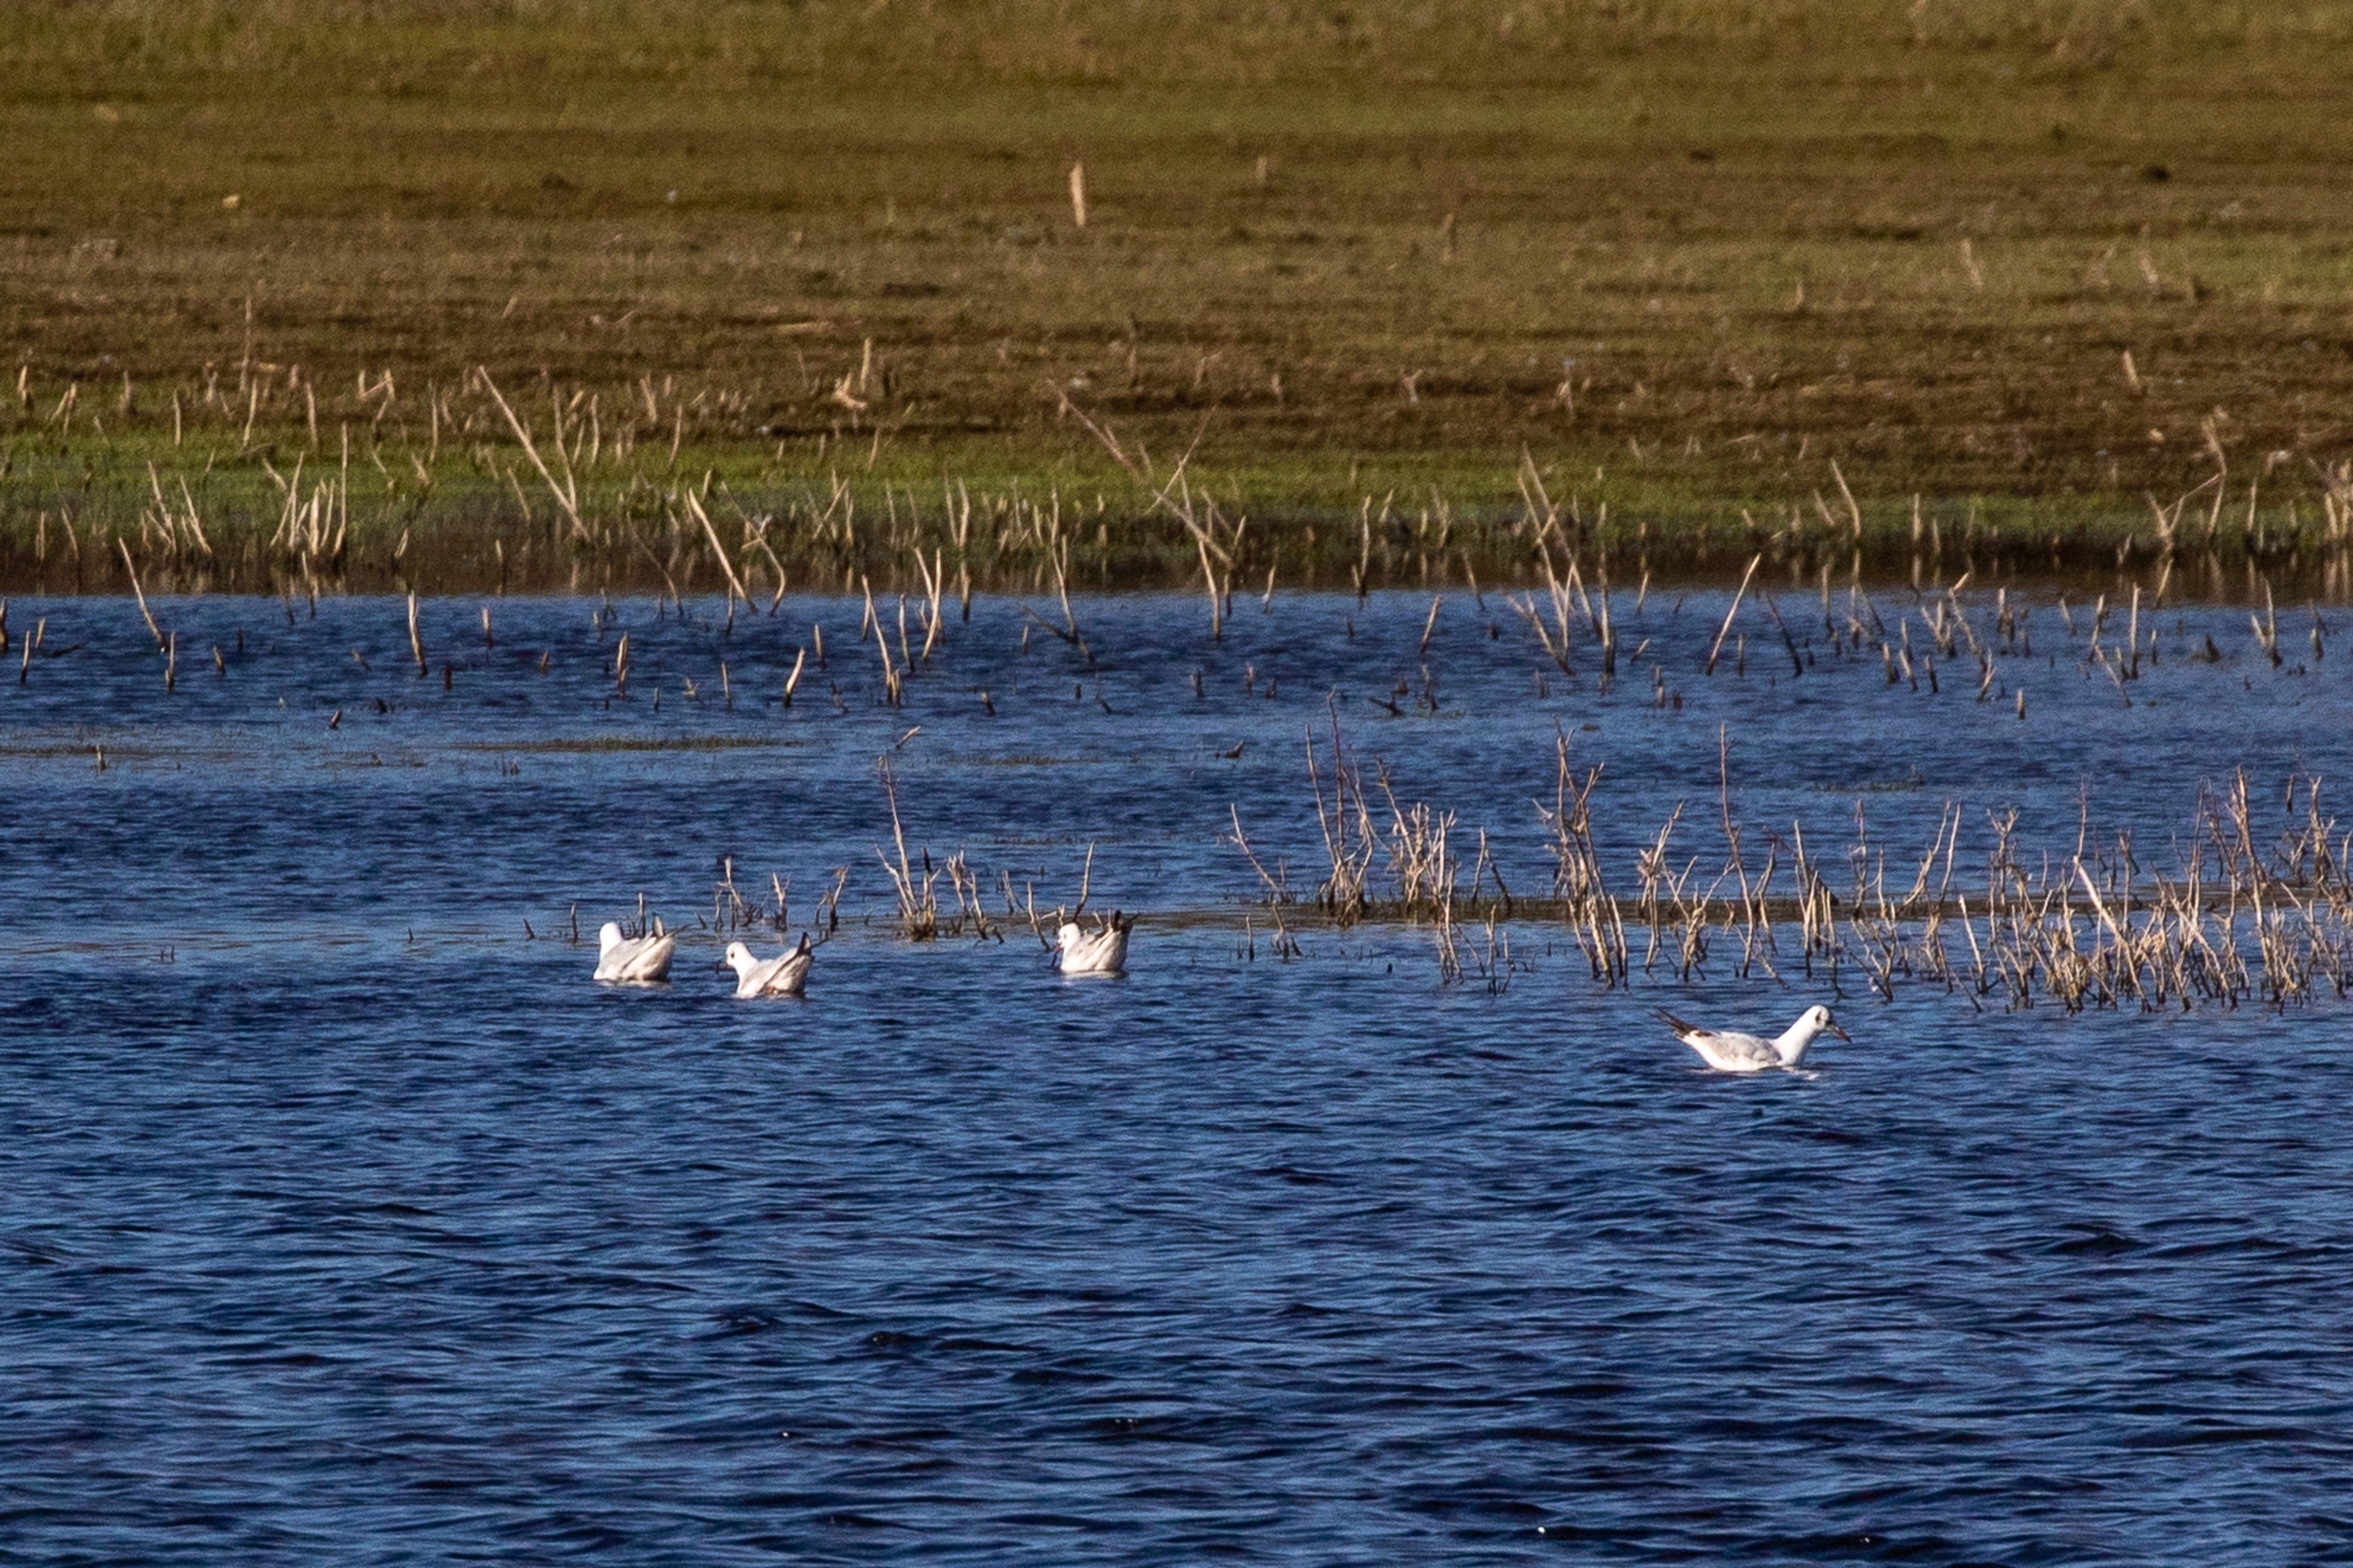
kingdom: Animalia
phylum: Chordata
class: Aves
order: Charadriiformes
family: Laridae
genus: Chroicocephalus
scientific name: Chroicocephalus ridibundus
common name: Hættemåge
